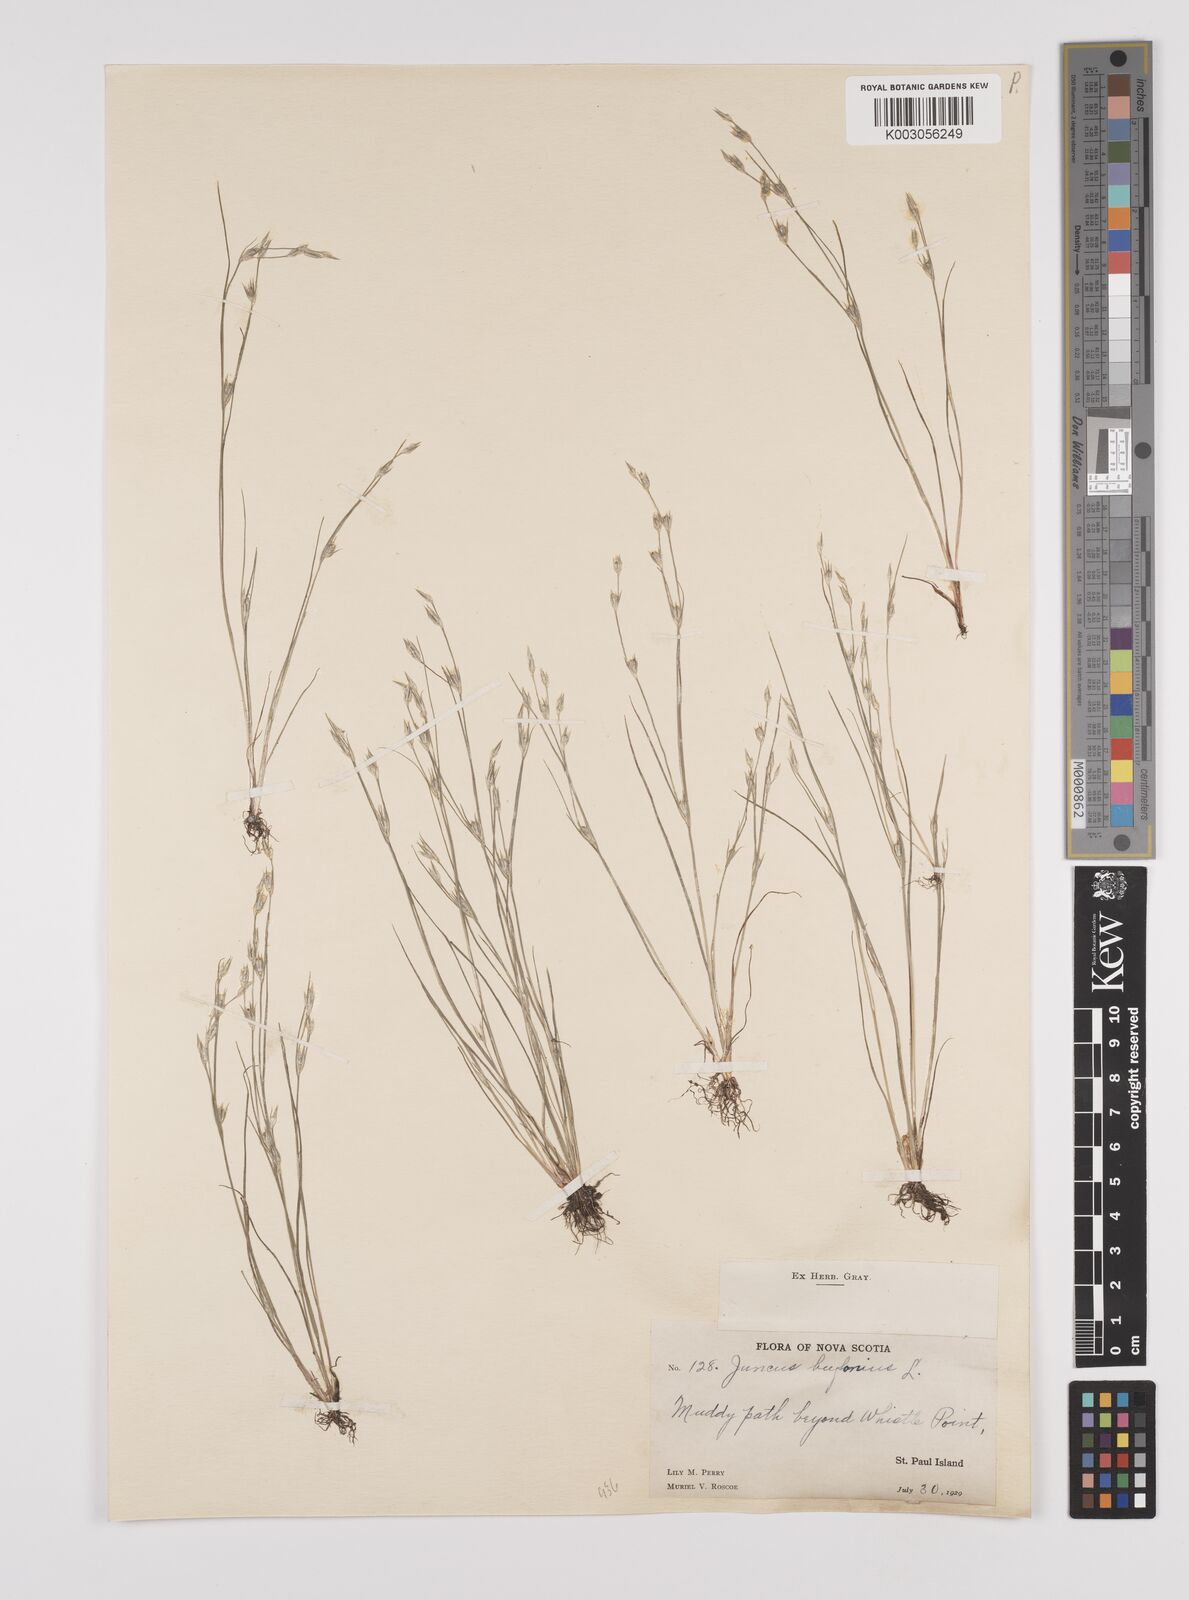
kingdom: Plantae
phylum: Tracheophyta
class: Liliopsida
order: Poales
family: Juncaceae
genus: Juncus
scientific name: Juncus bufonius
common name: Toad rush
